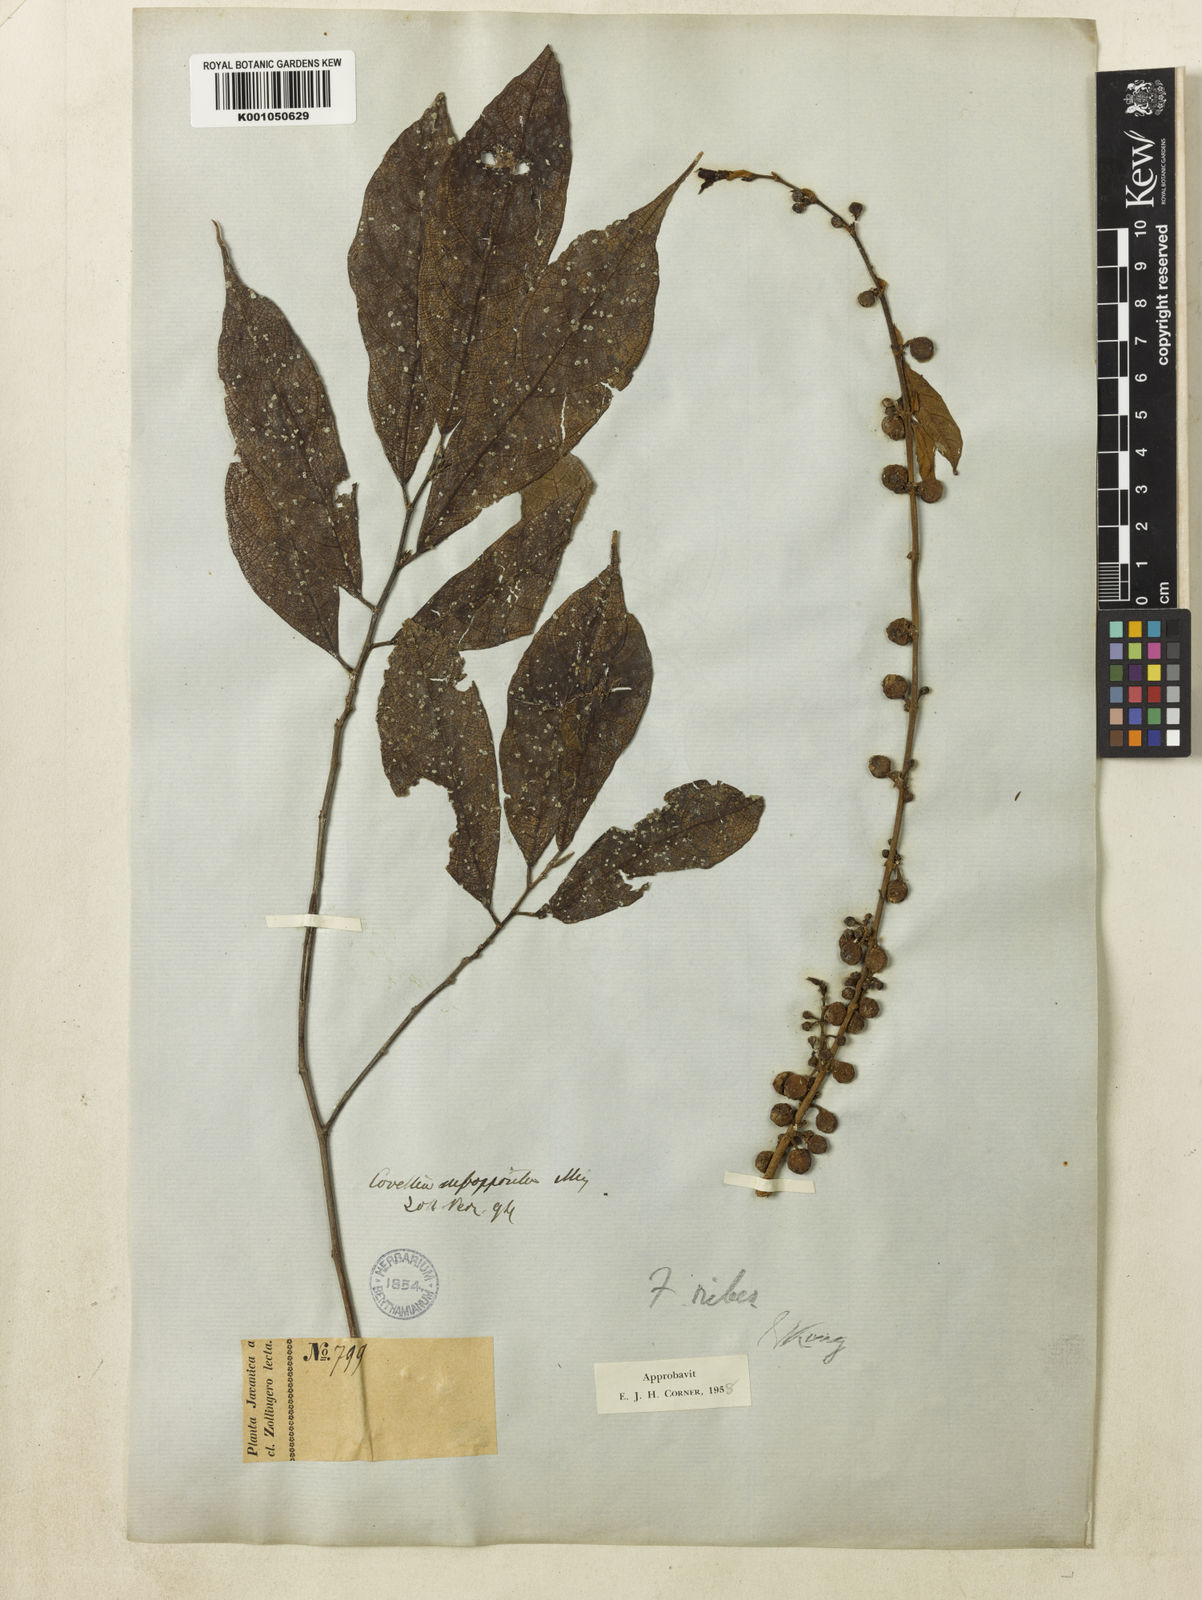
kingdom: Plantae
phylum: Tracheophyta
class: Magnoliopsida
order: Rosales
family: Moraceae
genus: Ficus
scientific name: Ficus ribes
